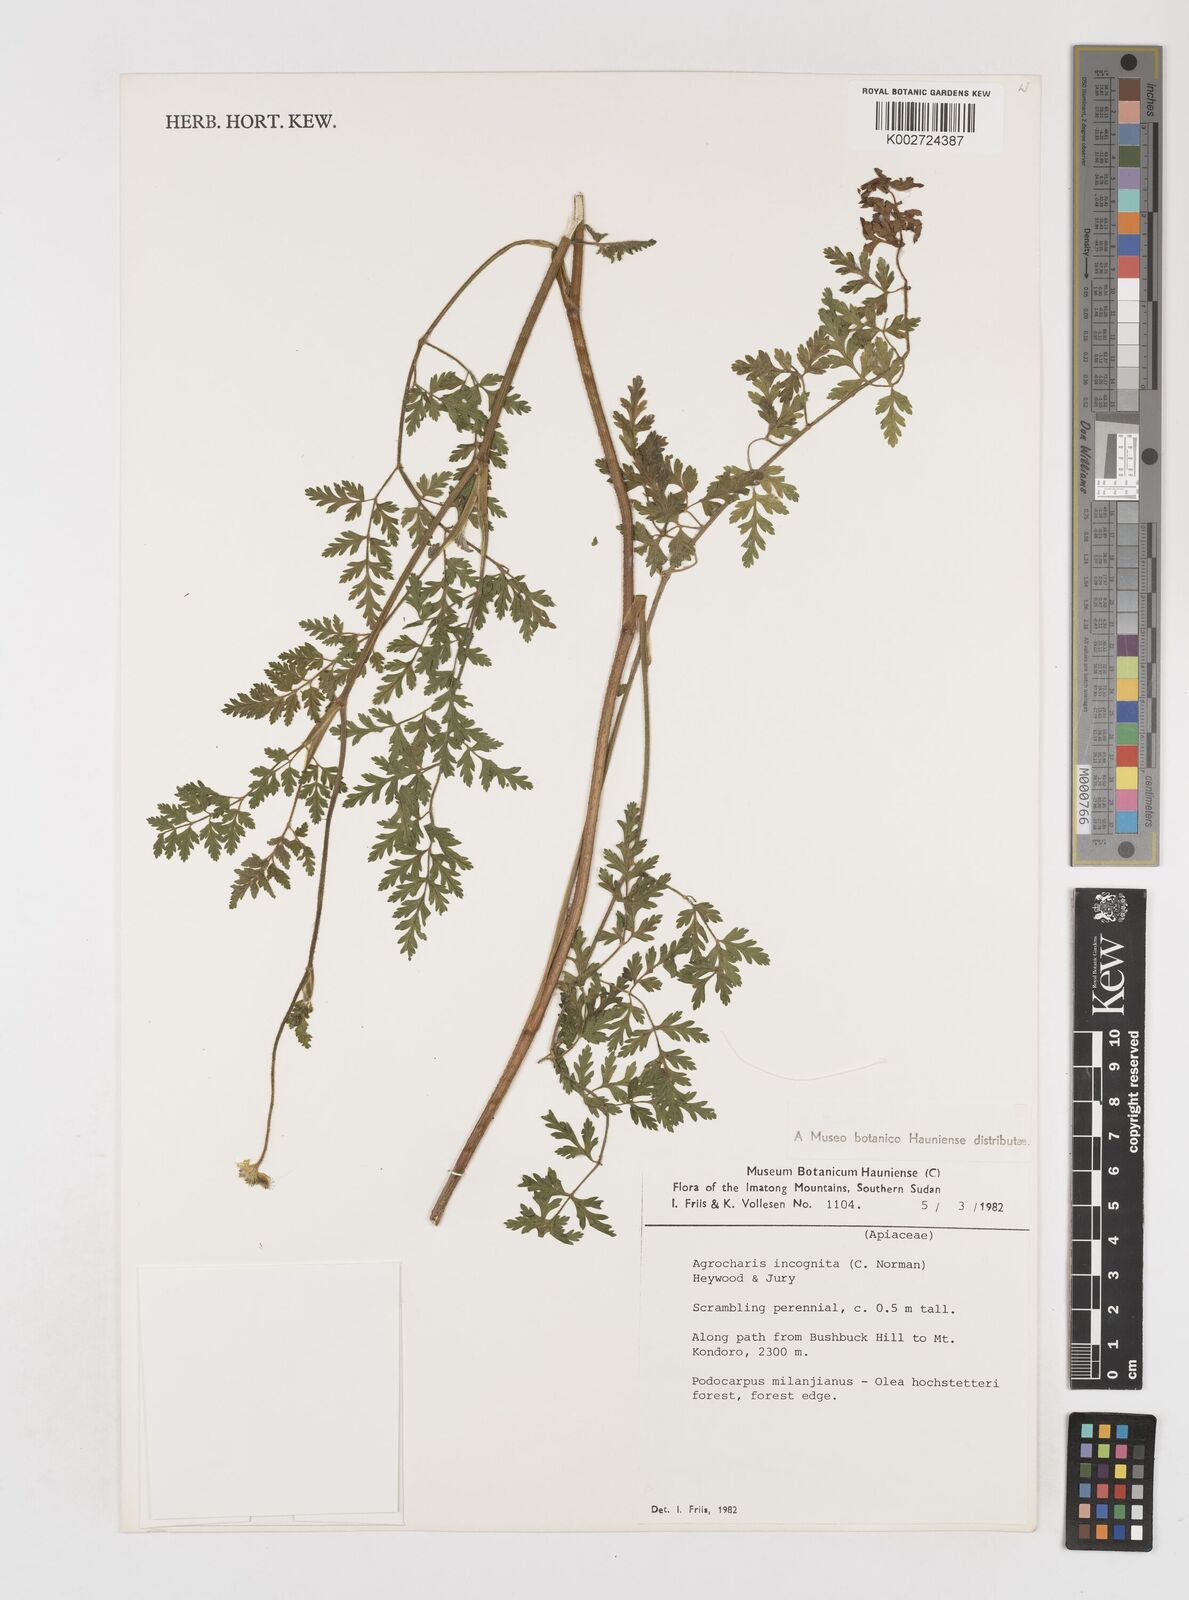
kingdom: Plantae
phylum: Tracheophyta
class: Magnoliopsida
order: Apiales
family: Apiaceae
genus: Daucus
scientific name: Daucus incognitus
